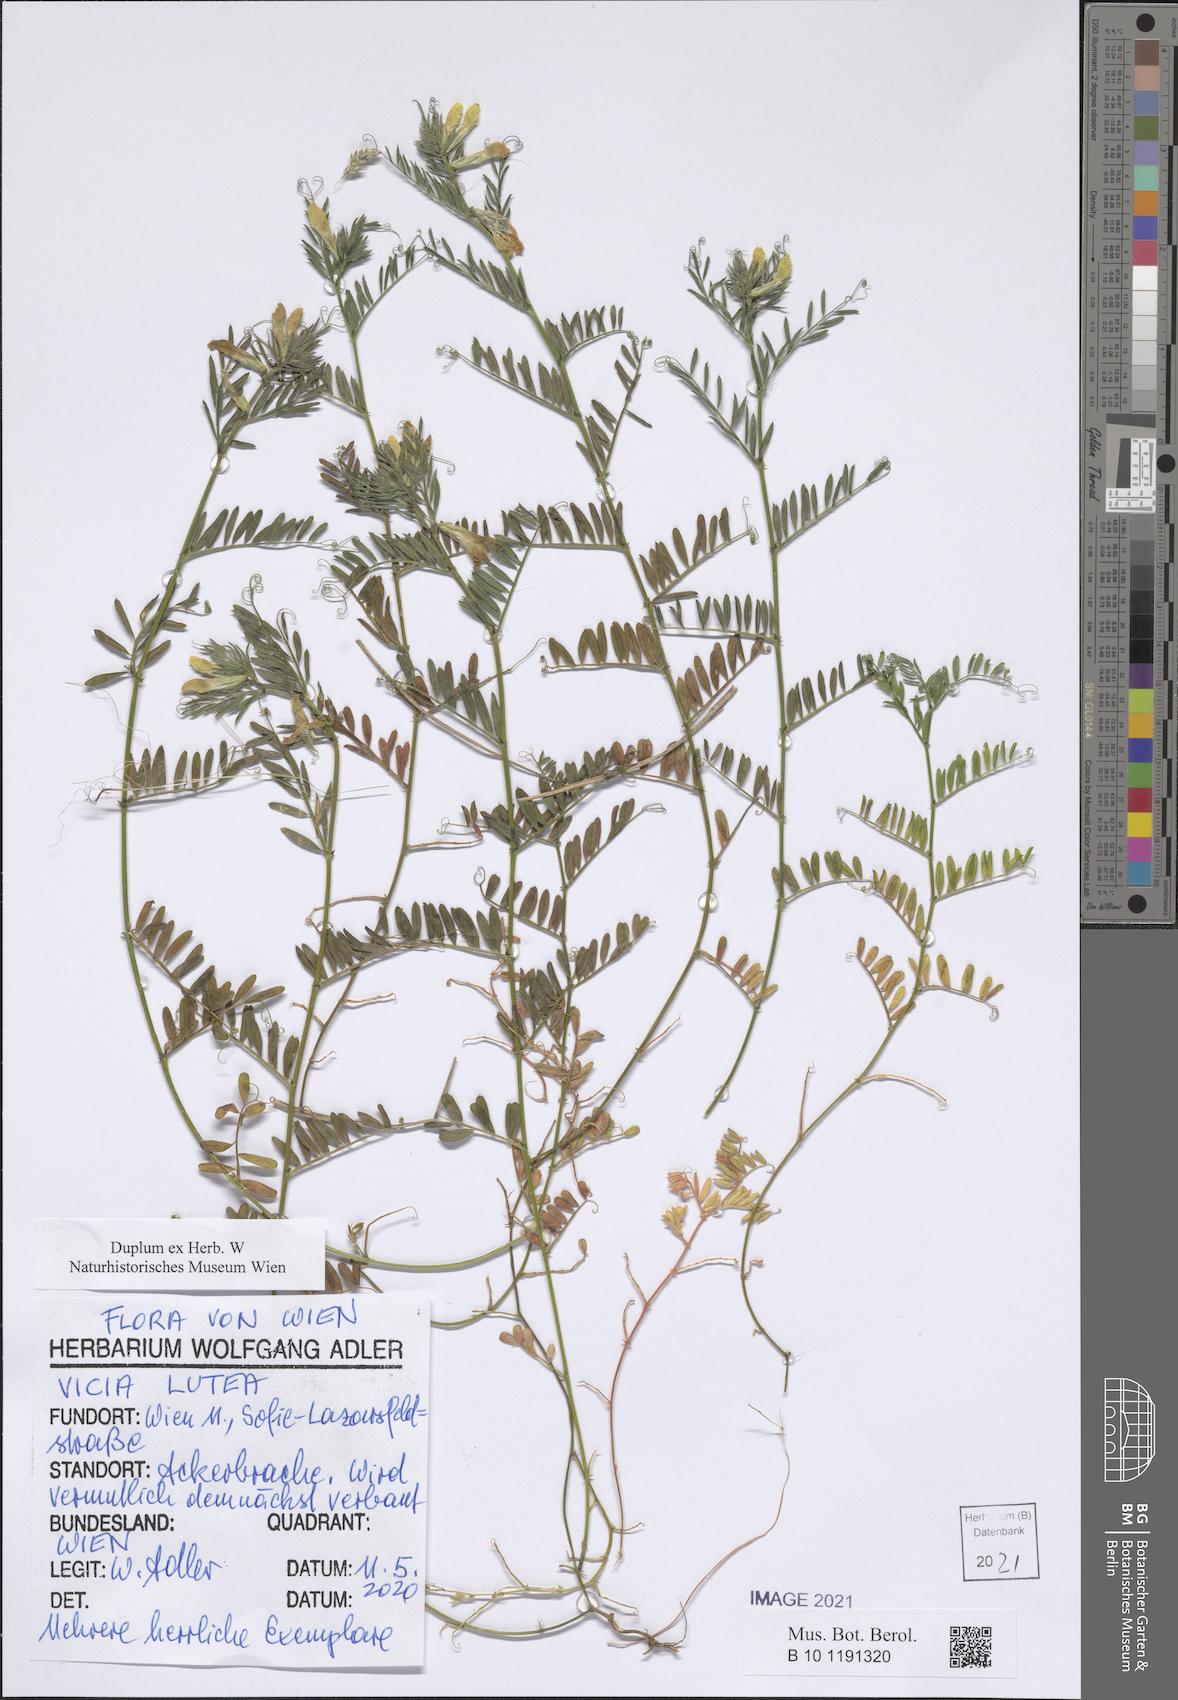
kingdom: Plantae
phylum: Tracheophyta
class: Magnoliopsida
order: Fabales
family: Fabaceae
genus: Vicia
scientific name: Vicia lutea
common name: Smooth yellow vetch
